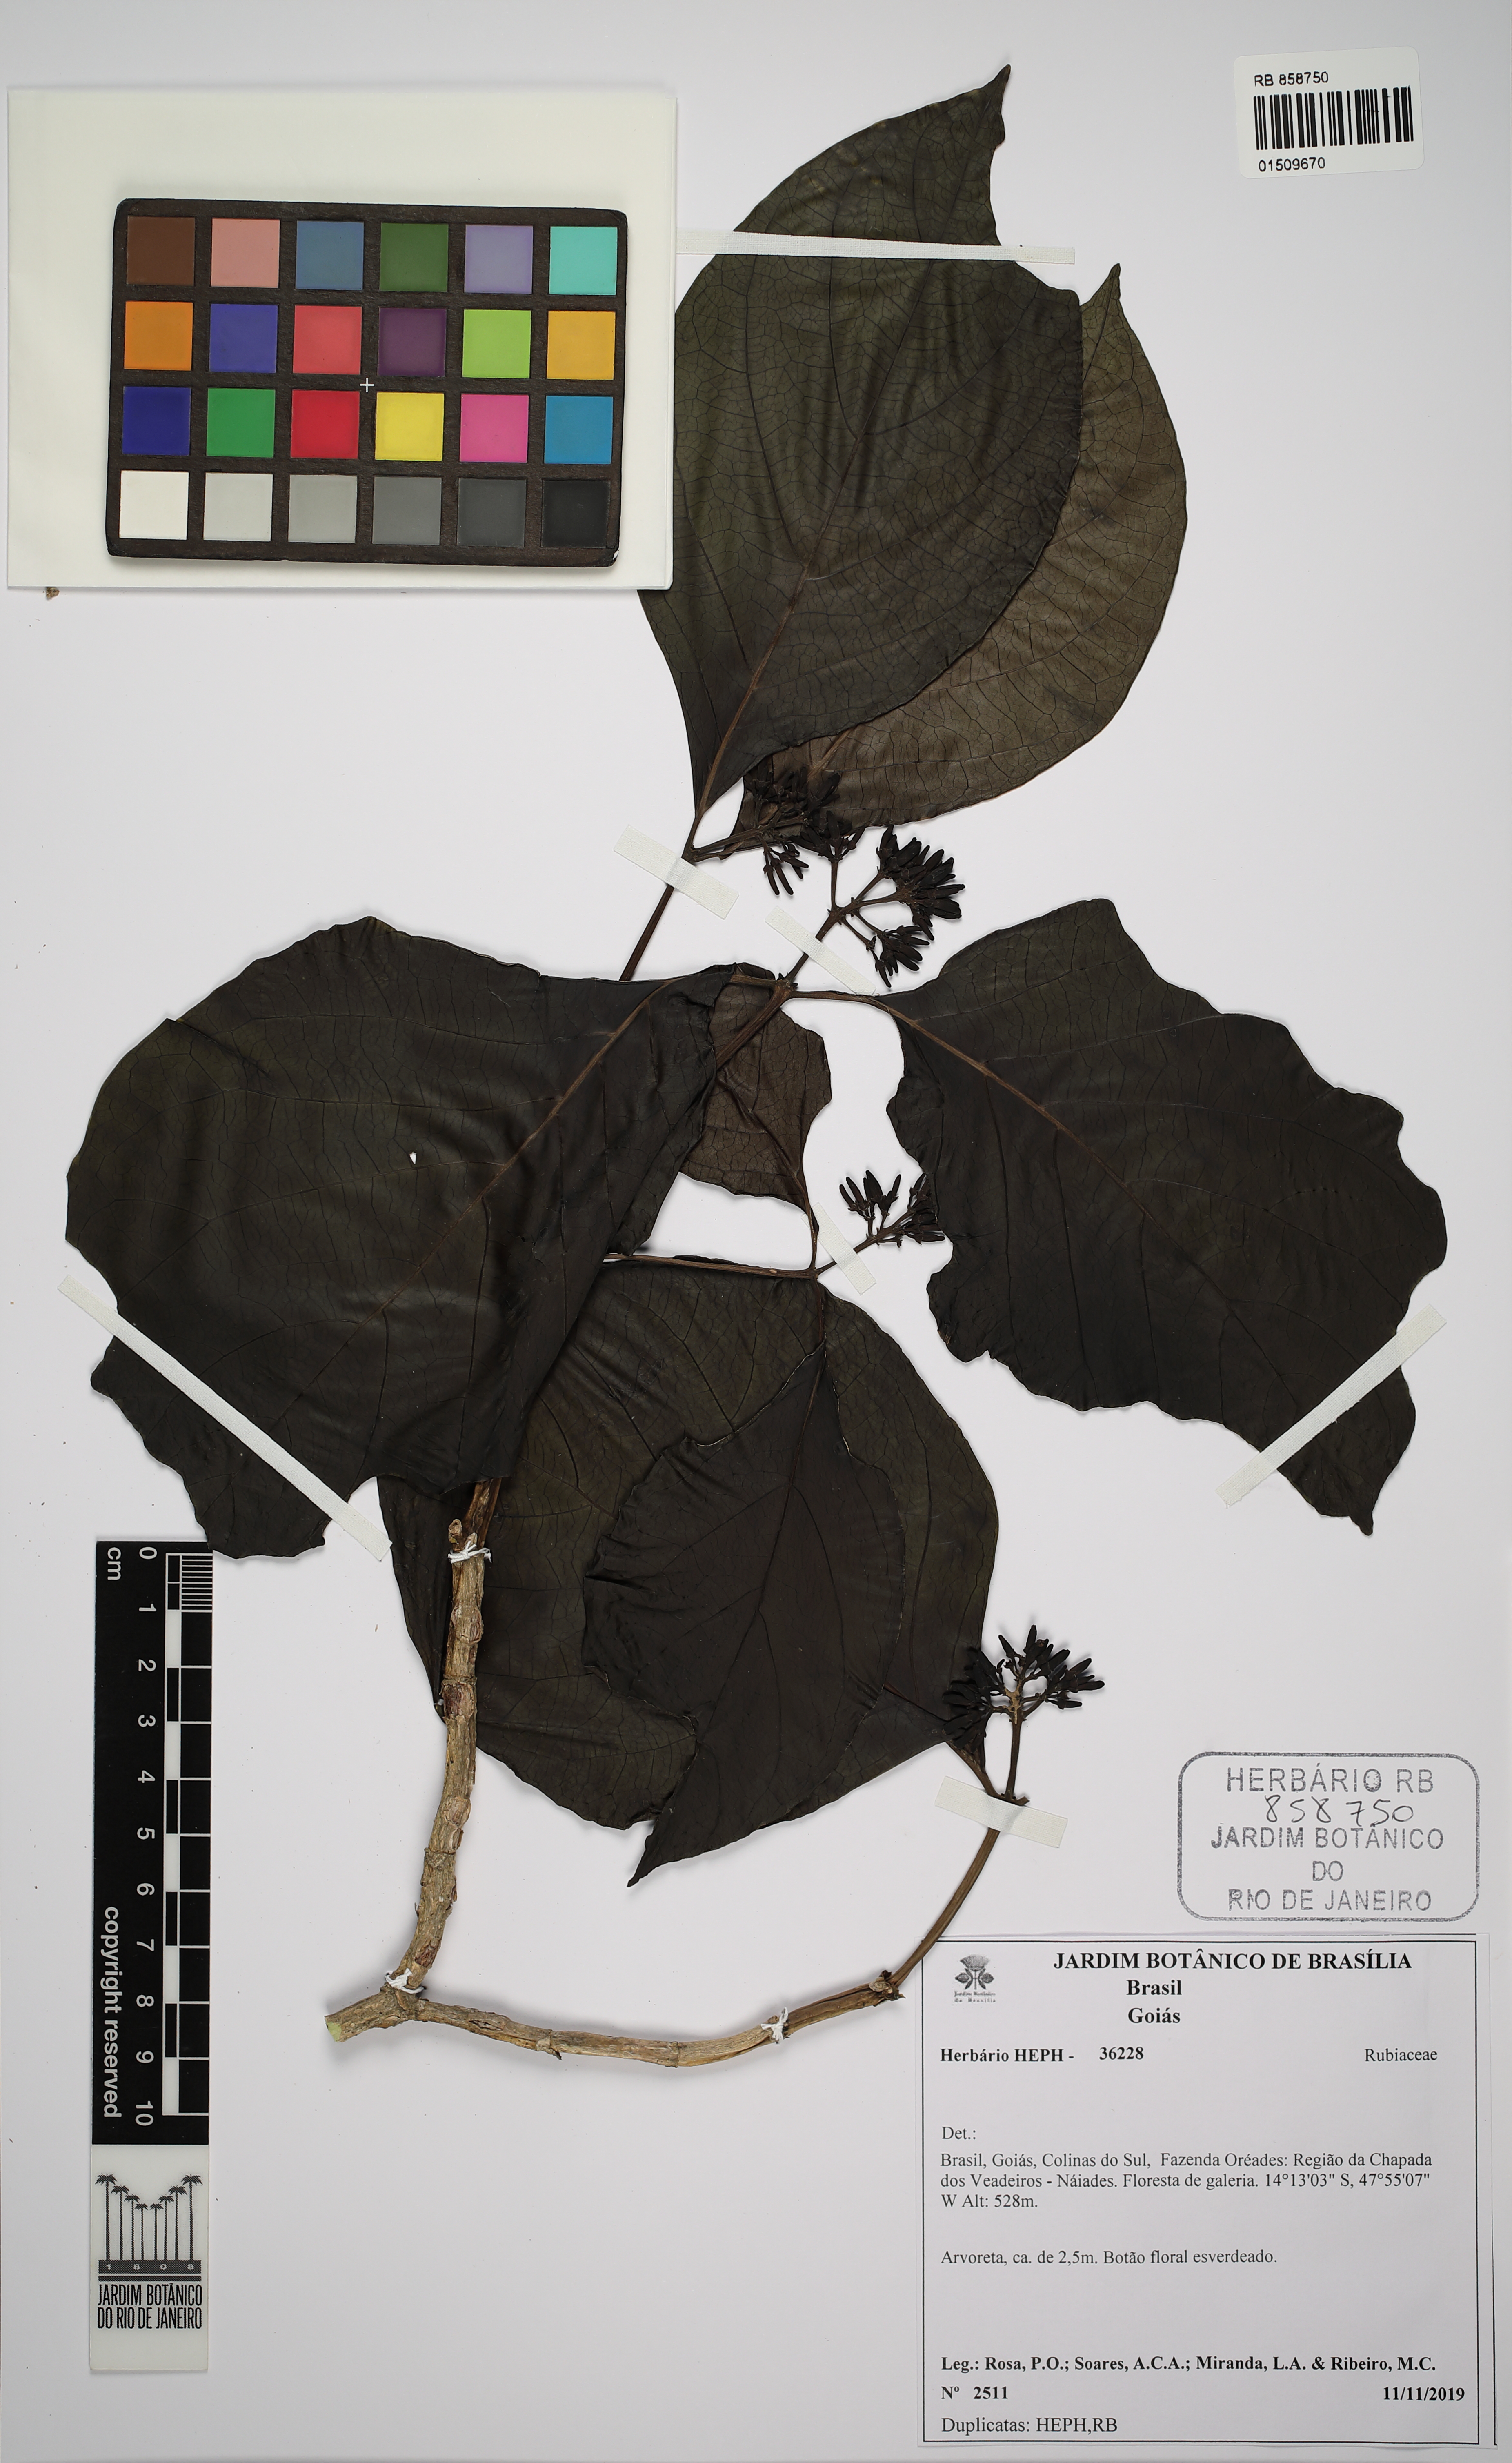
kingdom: Plantae
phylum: Tracheophyta
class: Magnoliopsida
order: Gentianales
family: Rubiaceae
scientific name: Rubiaceae
